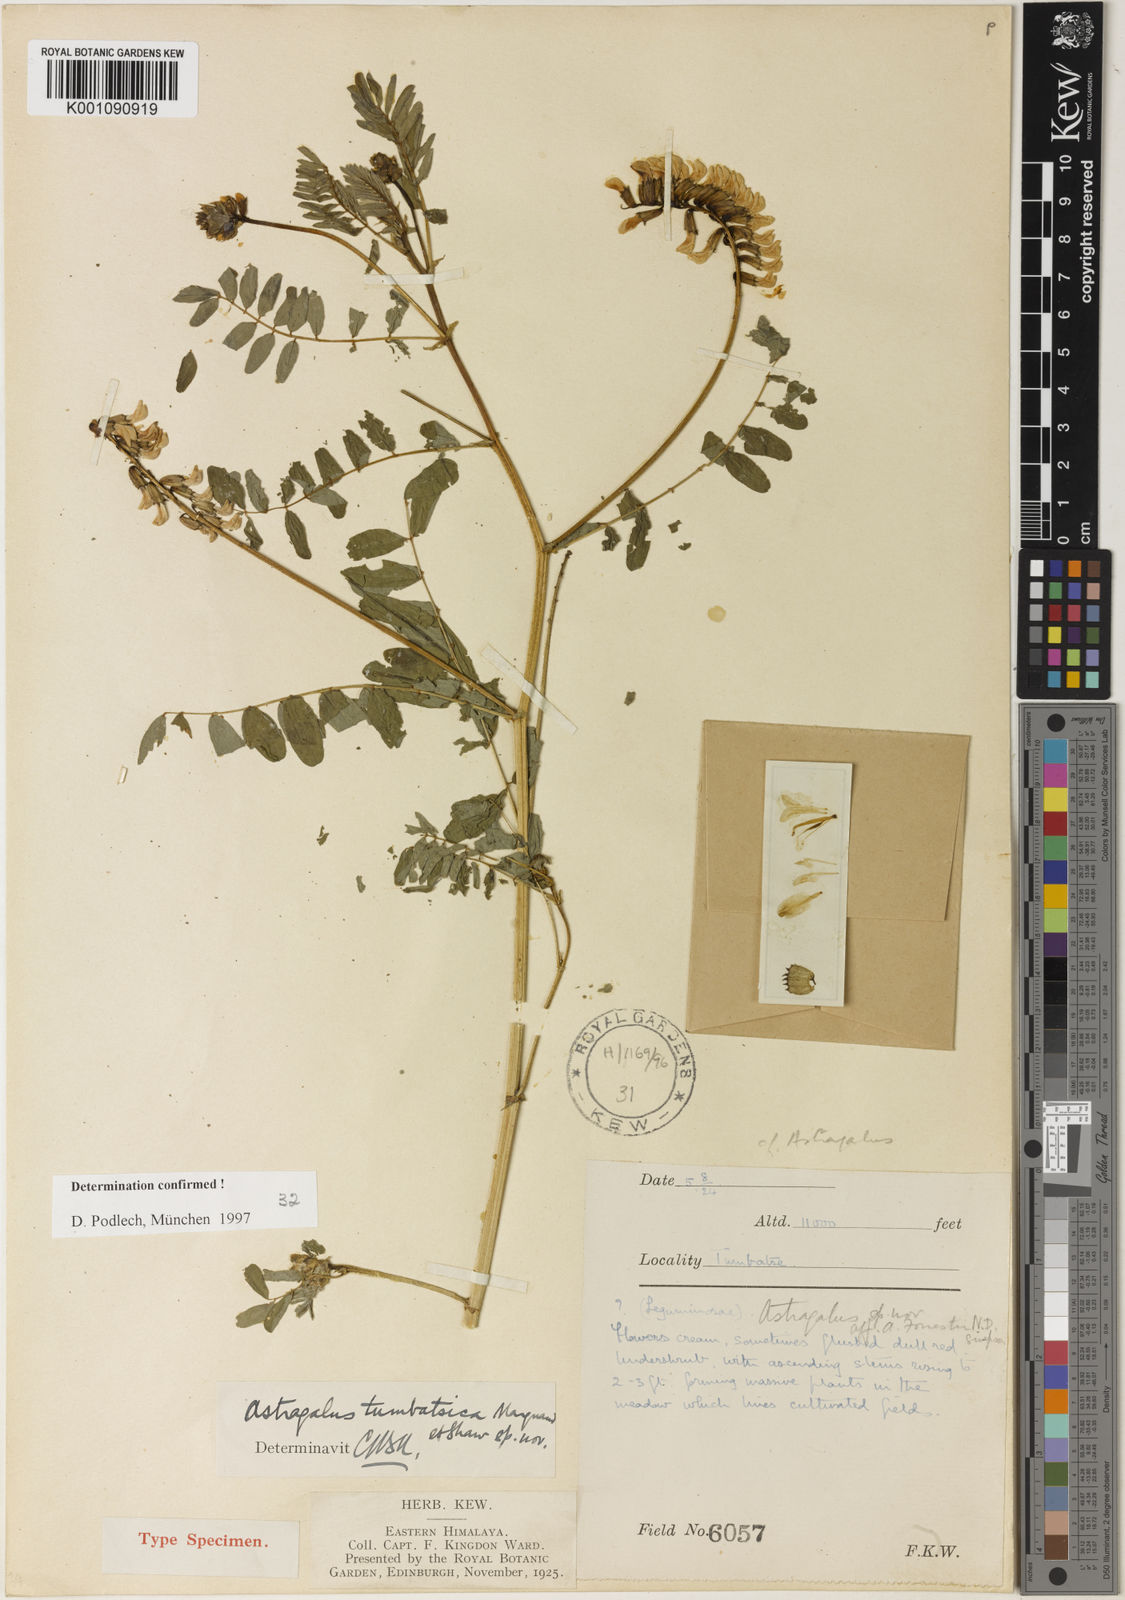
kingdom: Plantae
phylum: Tracheophyta
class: Magnoliopsida
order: Fabales
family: Fabaceae
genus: Astragalus
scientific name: Astragalus
